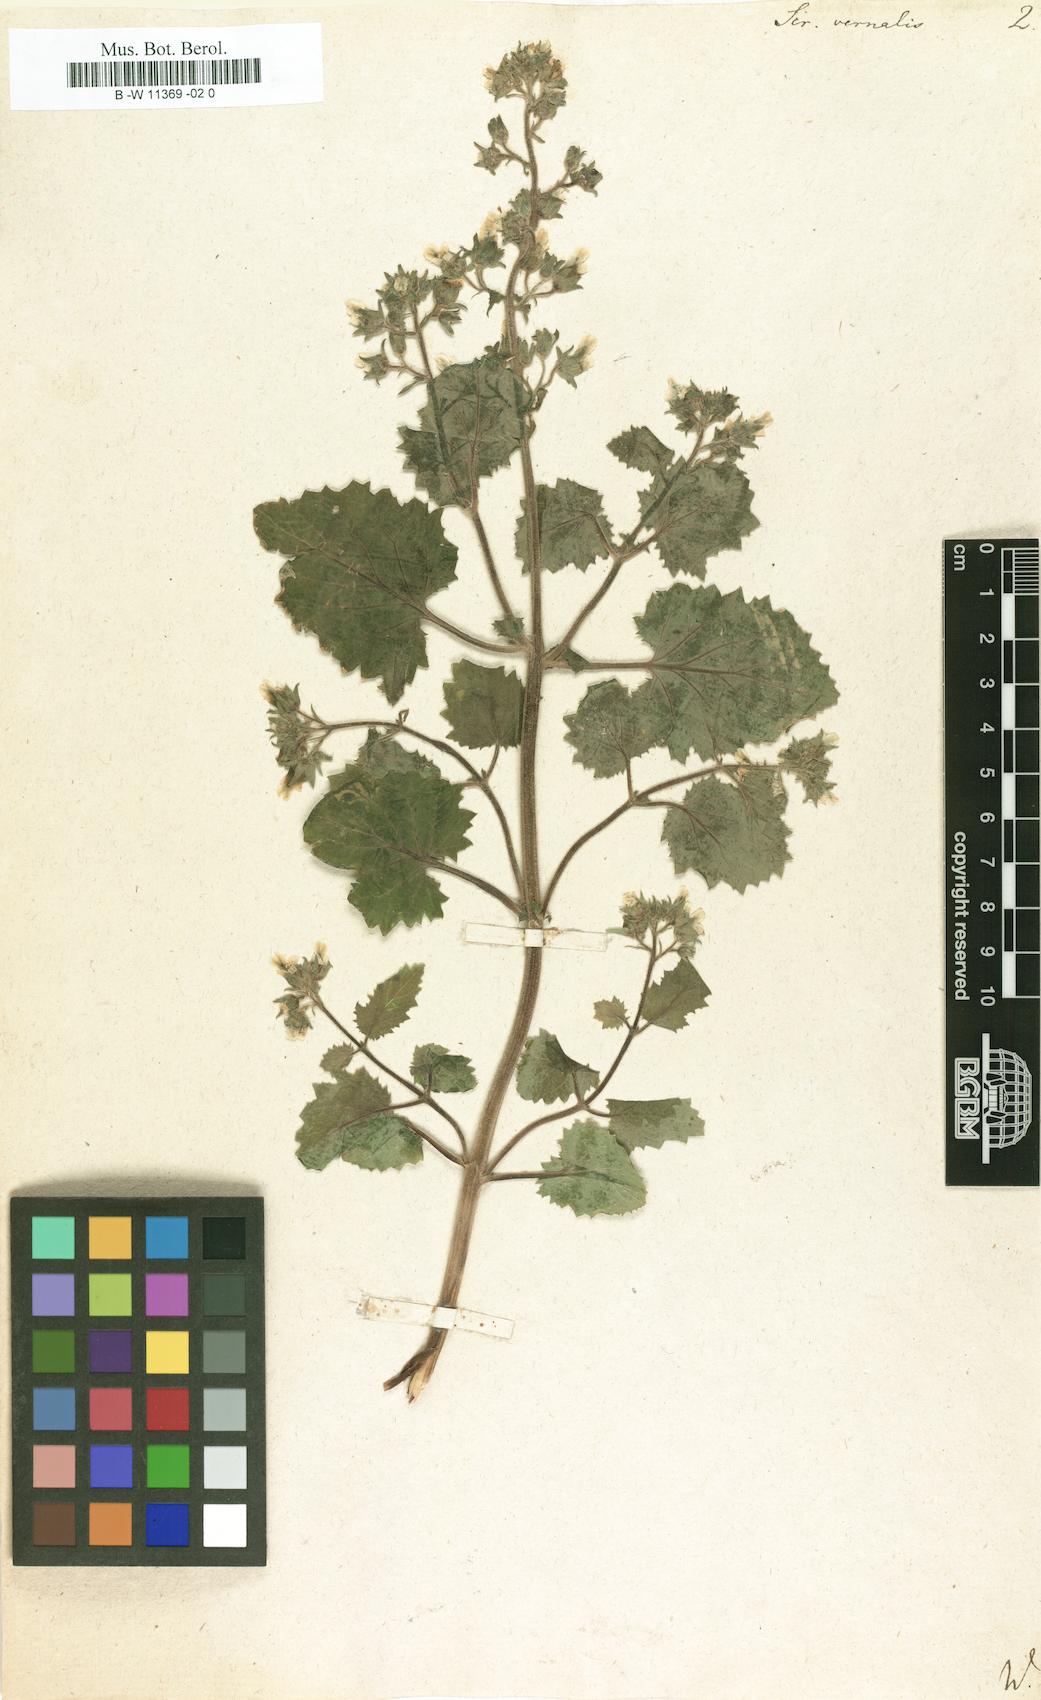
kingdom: Plantae
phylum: Tracheophyta
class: Magnoliopsida
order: Lamiales
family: Scrophulariaceae
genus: Scrophularia
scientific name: Scrophularia vernalis
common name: Yellow figwort
